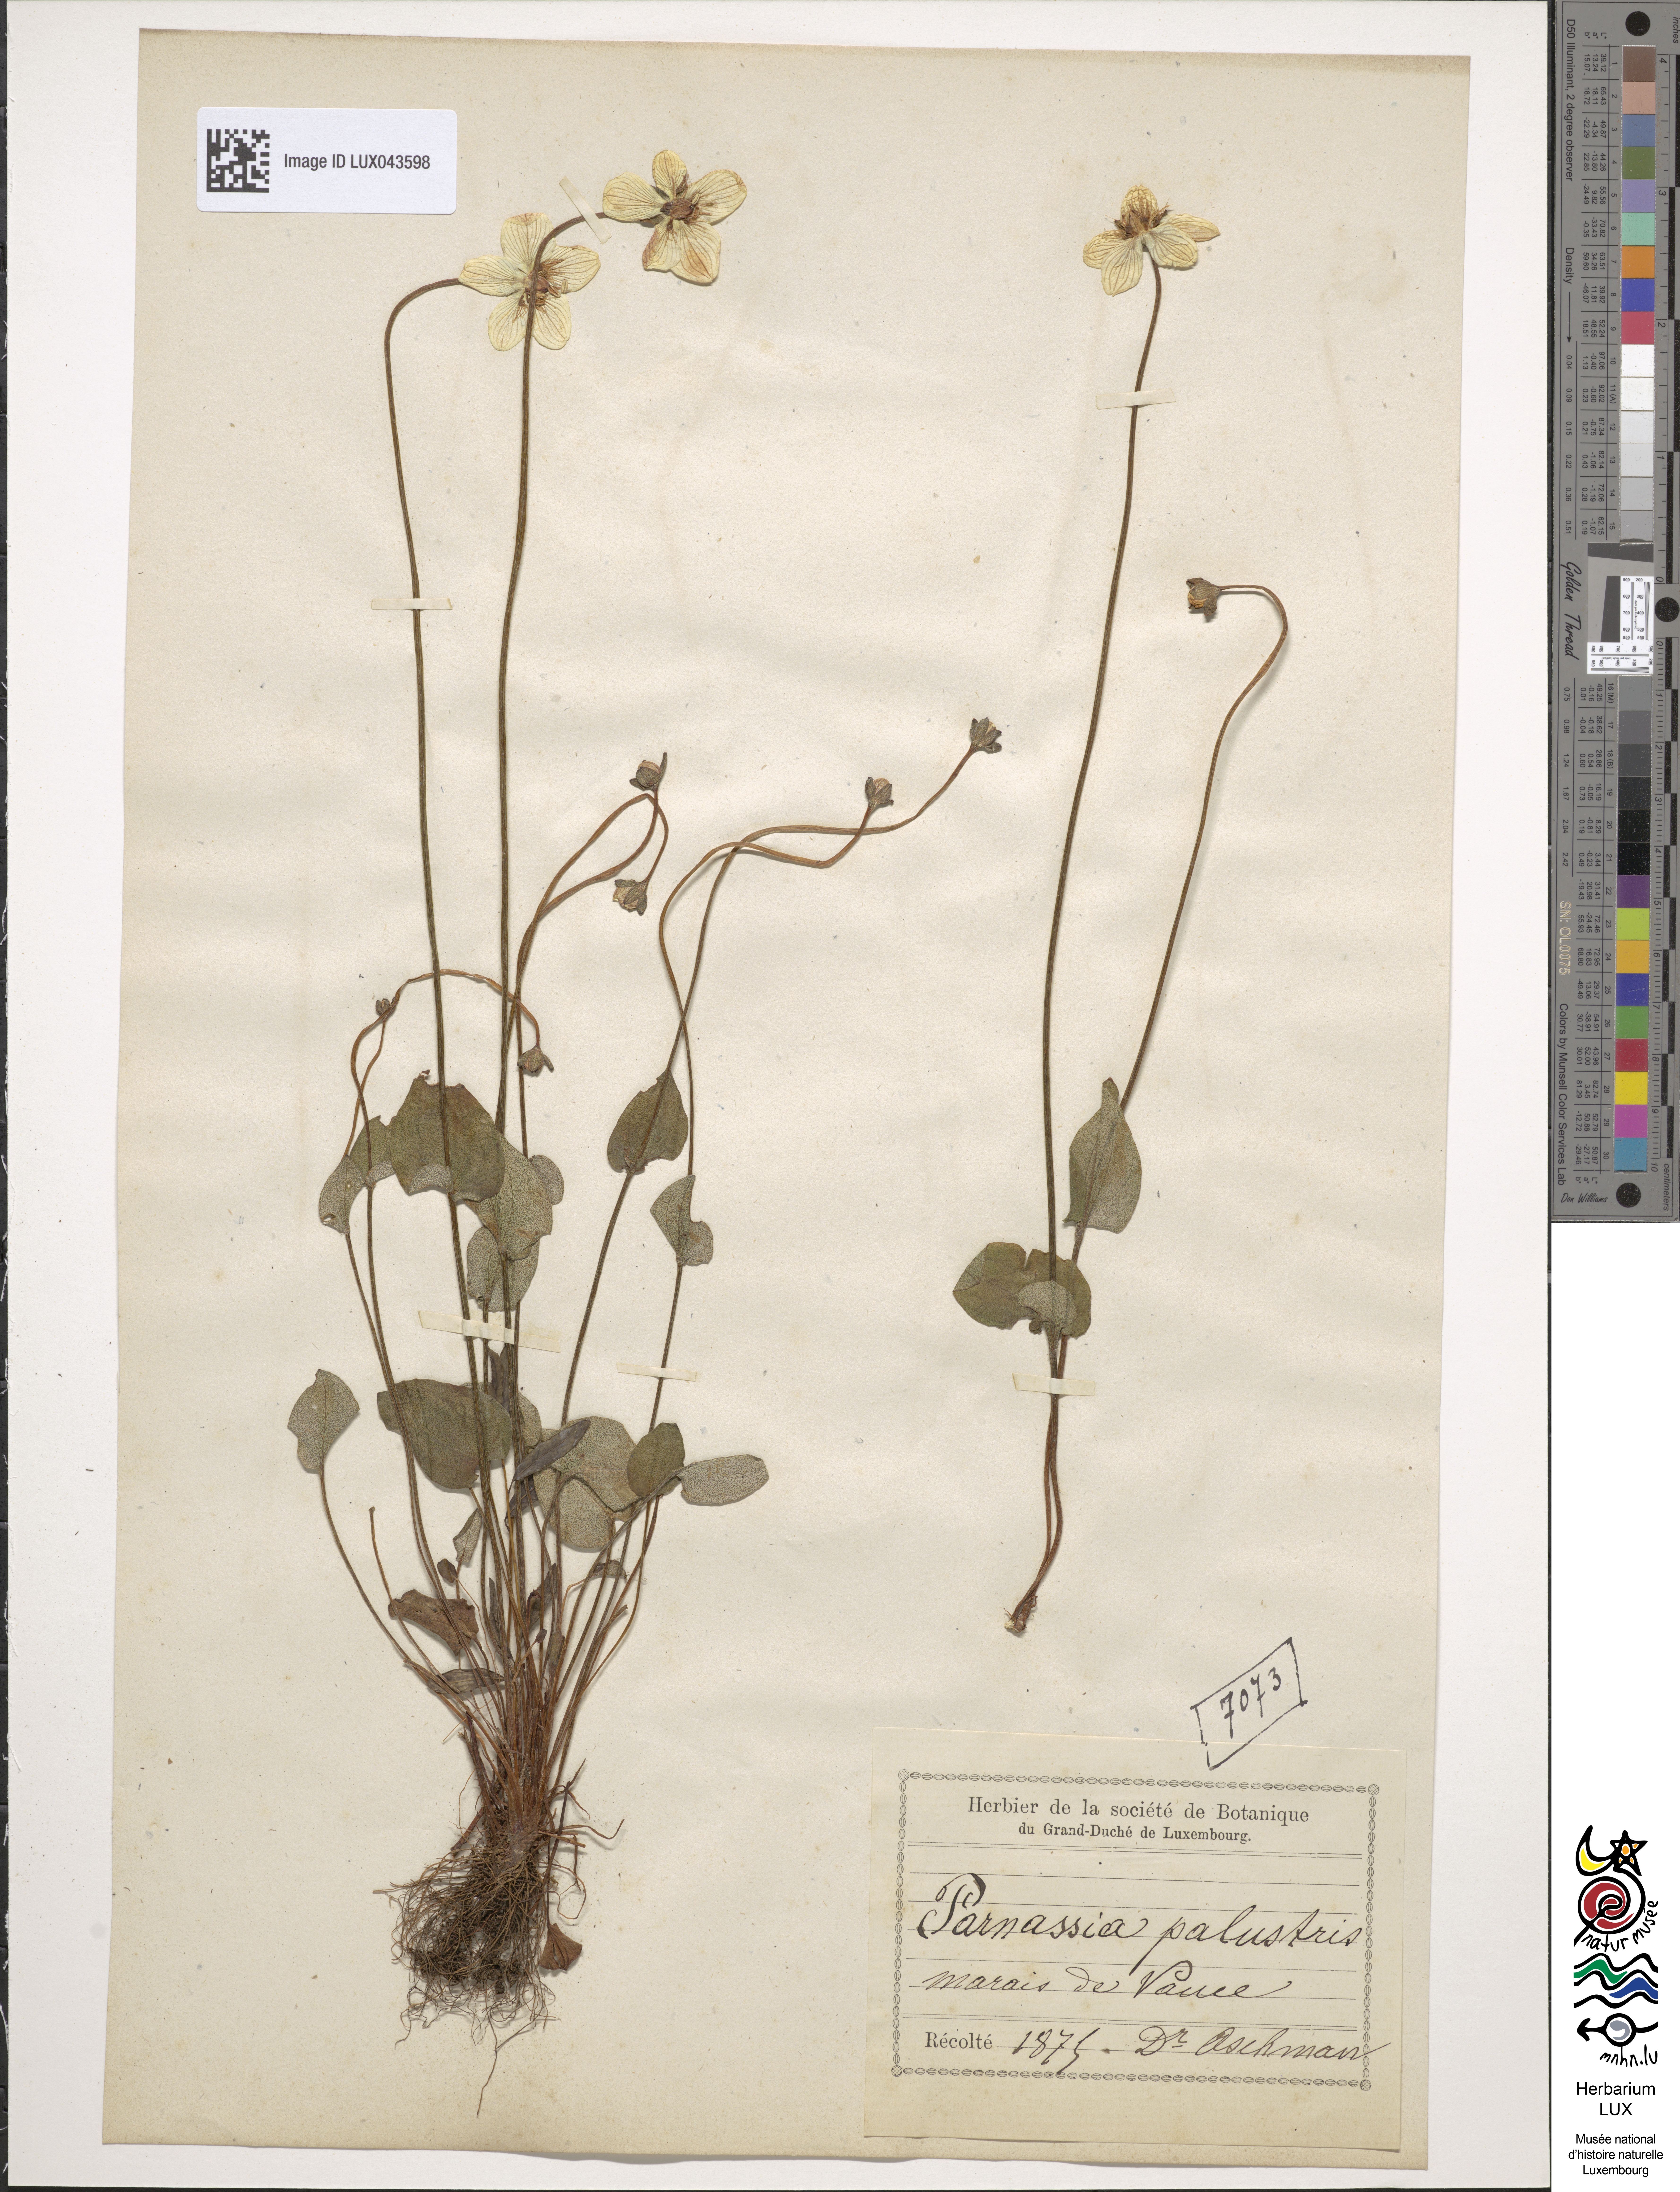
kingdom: Plantae
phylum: Tracheophyta
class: Magnoliopsida
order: Celastrales
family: Parnassiaceae
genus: Parnassia
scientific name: Parnassia palustris
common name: Grass-of-parnassus
